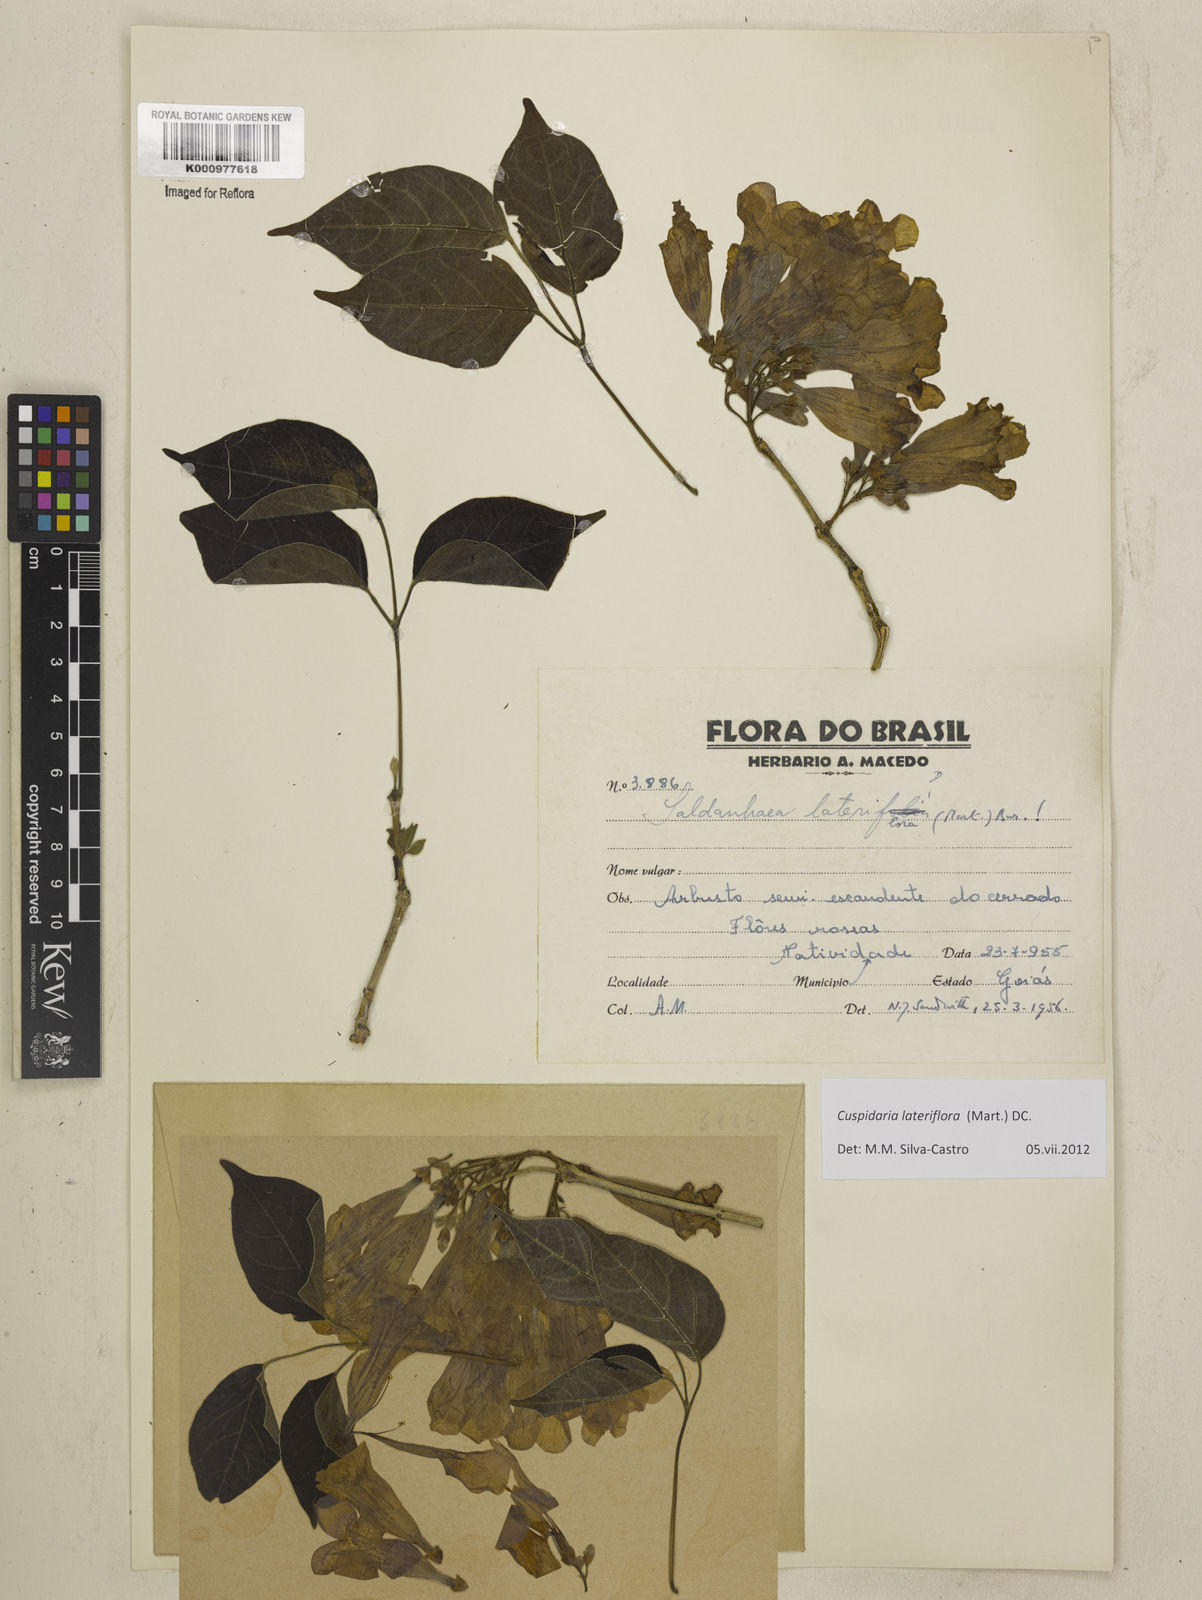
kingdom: Plantae
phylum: Tracheophyta
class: Magnoliopsida
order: Lamiales
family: Bignoniaceae
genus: Cuspidaria
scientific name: Cuspidaria lateriflora
